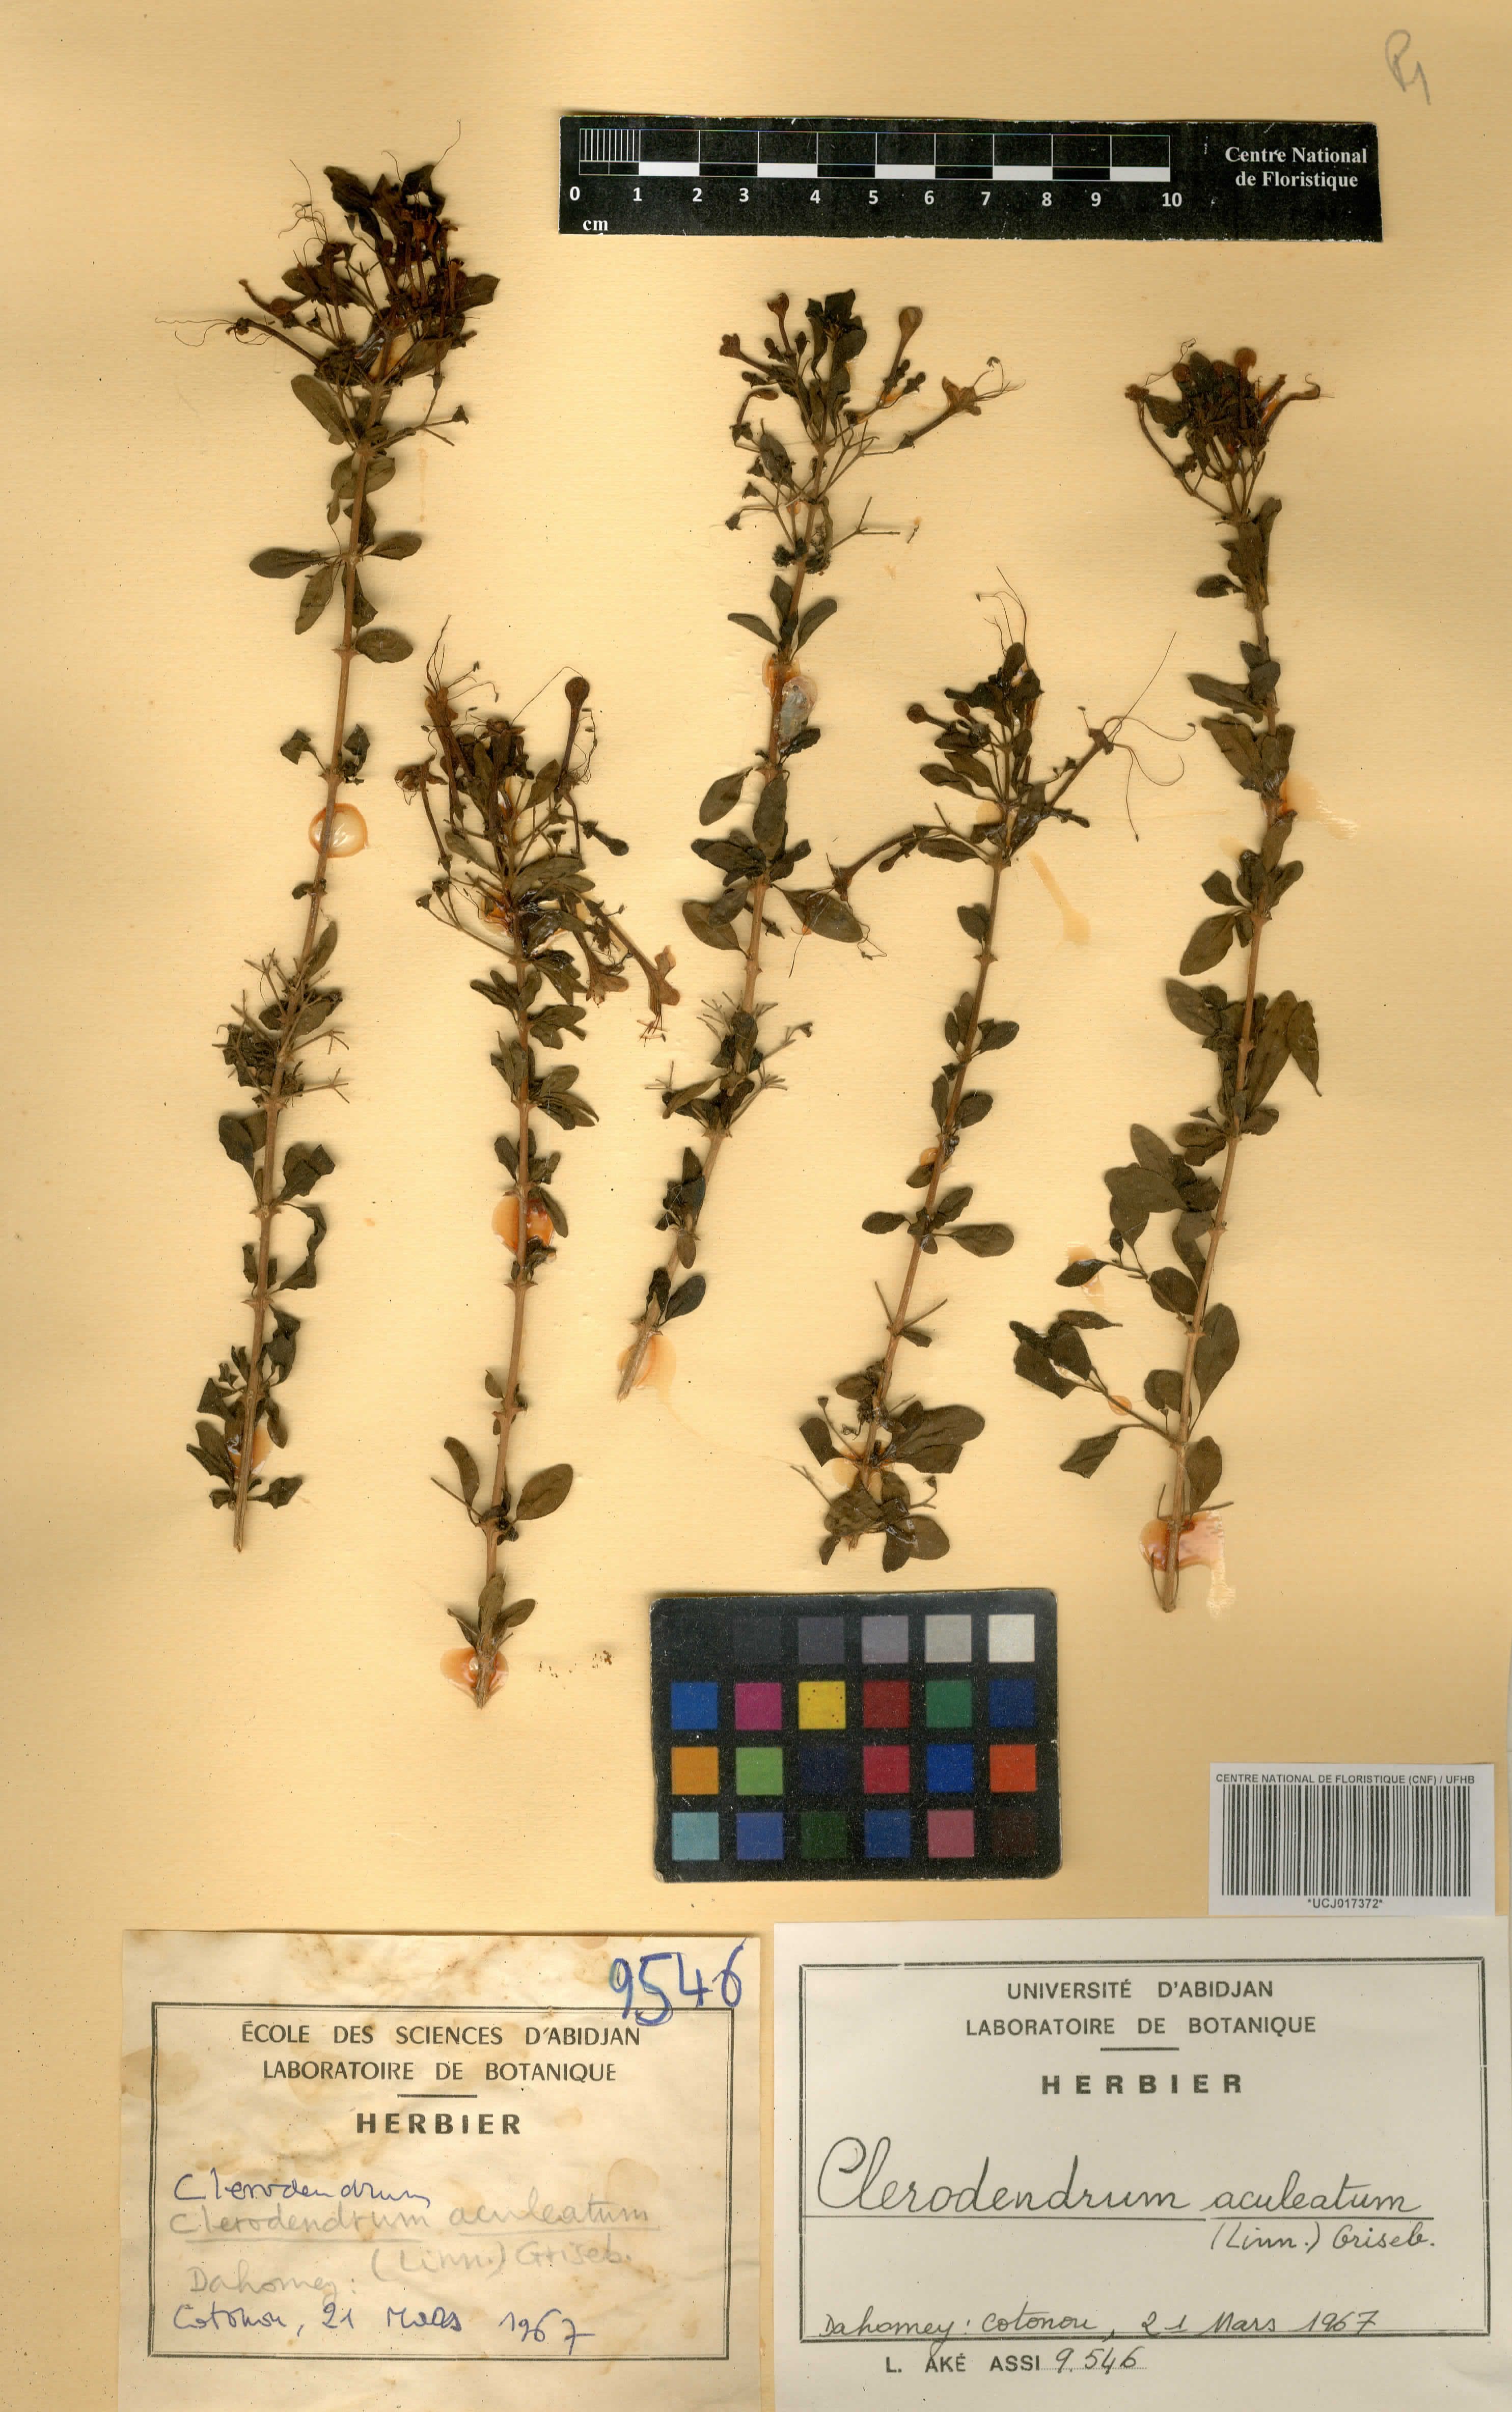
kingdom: Plantae
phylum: Tracheophyta
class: Magnoliopsida
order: Lamiales
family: Lamiaceae
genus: Clerodendrum
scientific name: Clerodendrum aculeatum
